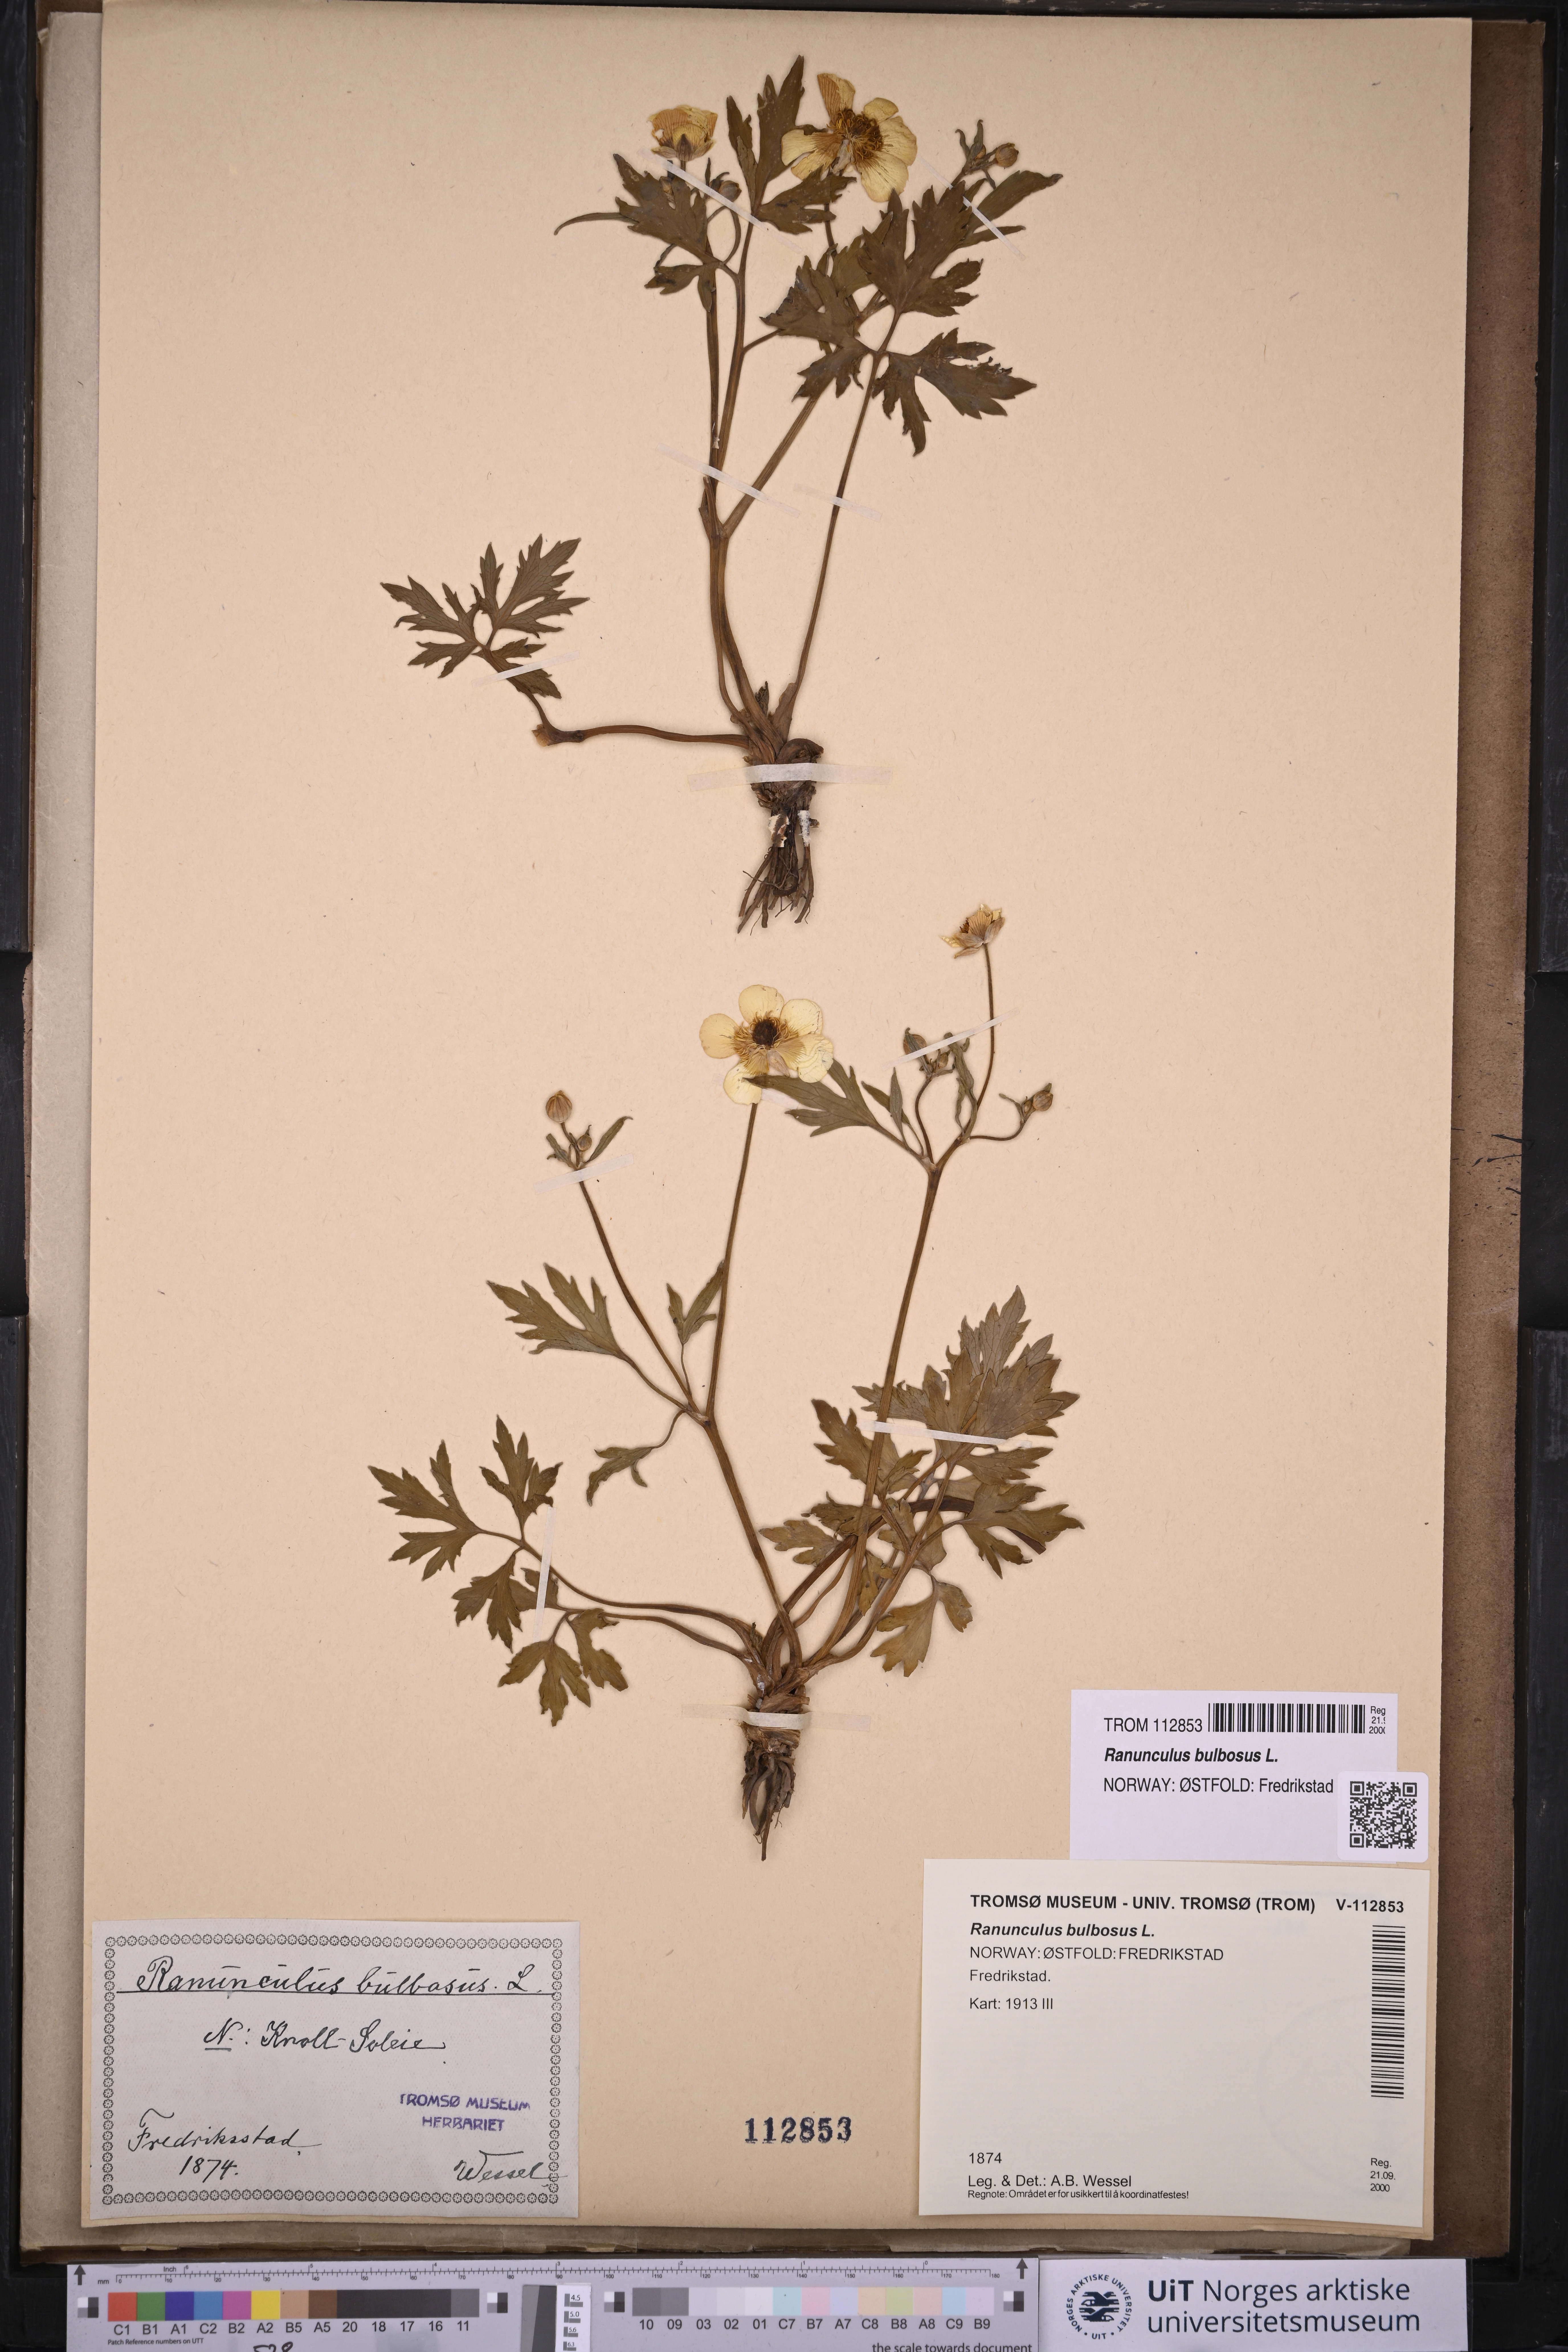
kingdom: Plantae
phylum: Tracheophyta
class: Magnoliopsida
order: Ranunculales
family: Ranunculaceae
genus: Ranunculus
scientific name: Ranunculus bulbosus
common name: Bulbous buttercup
